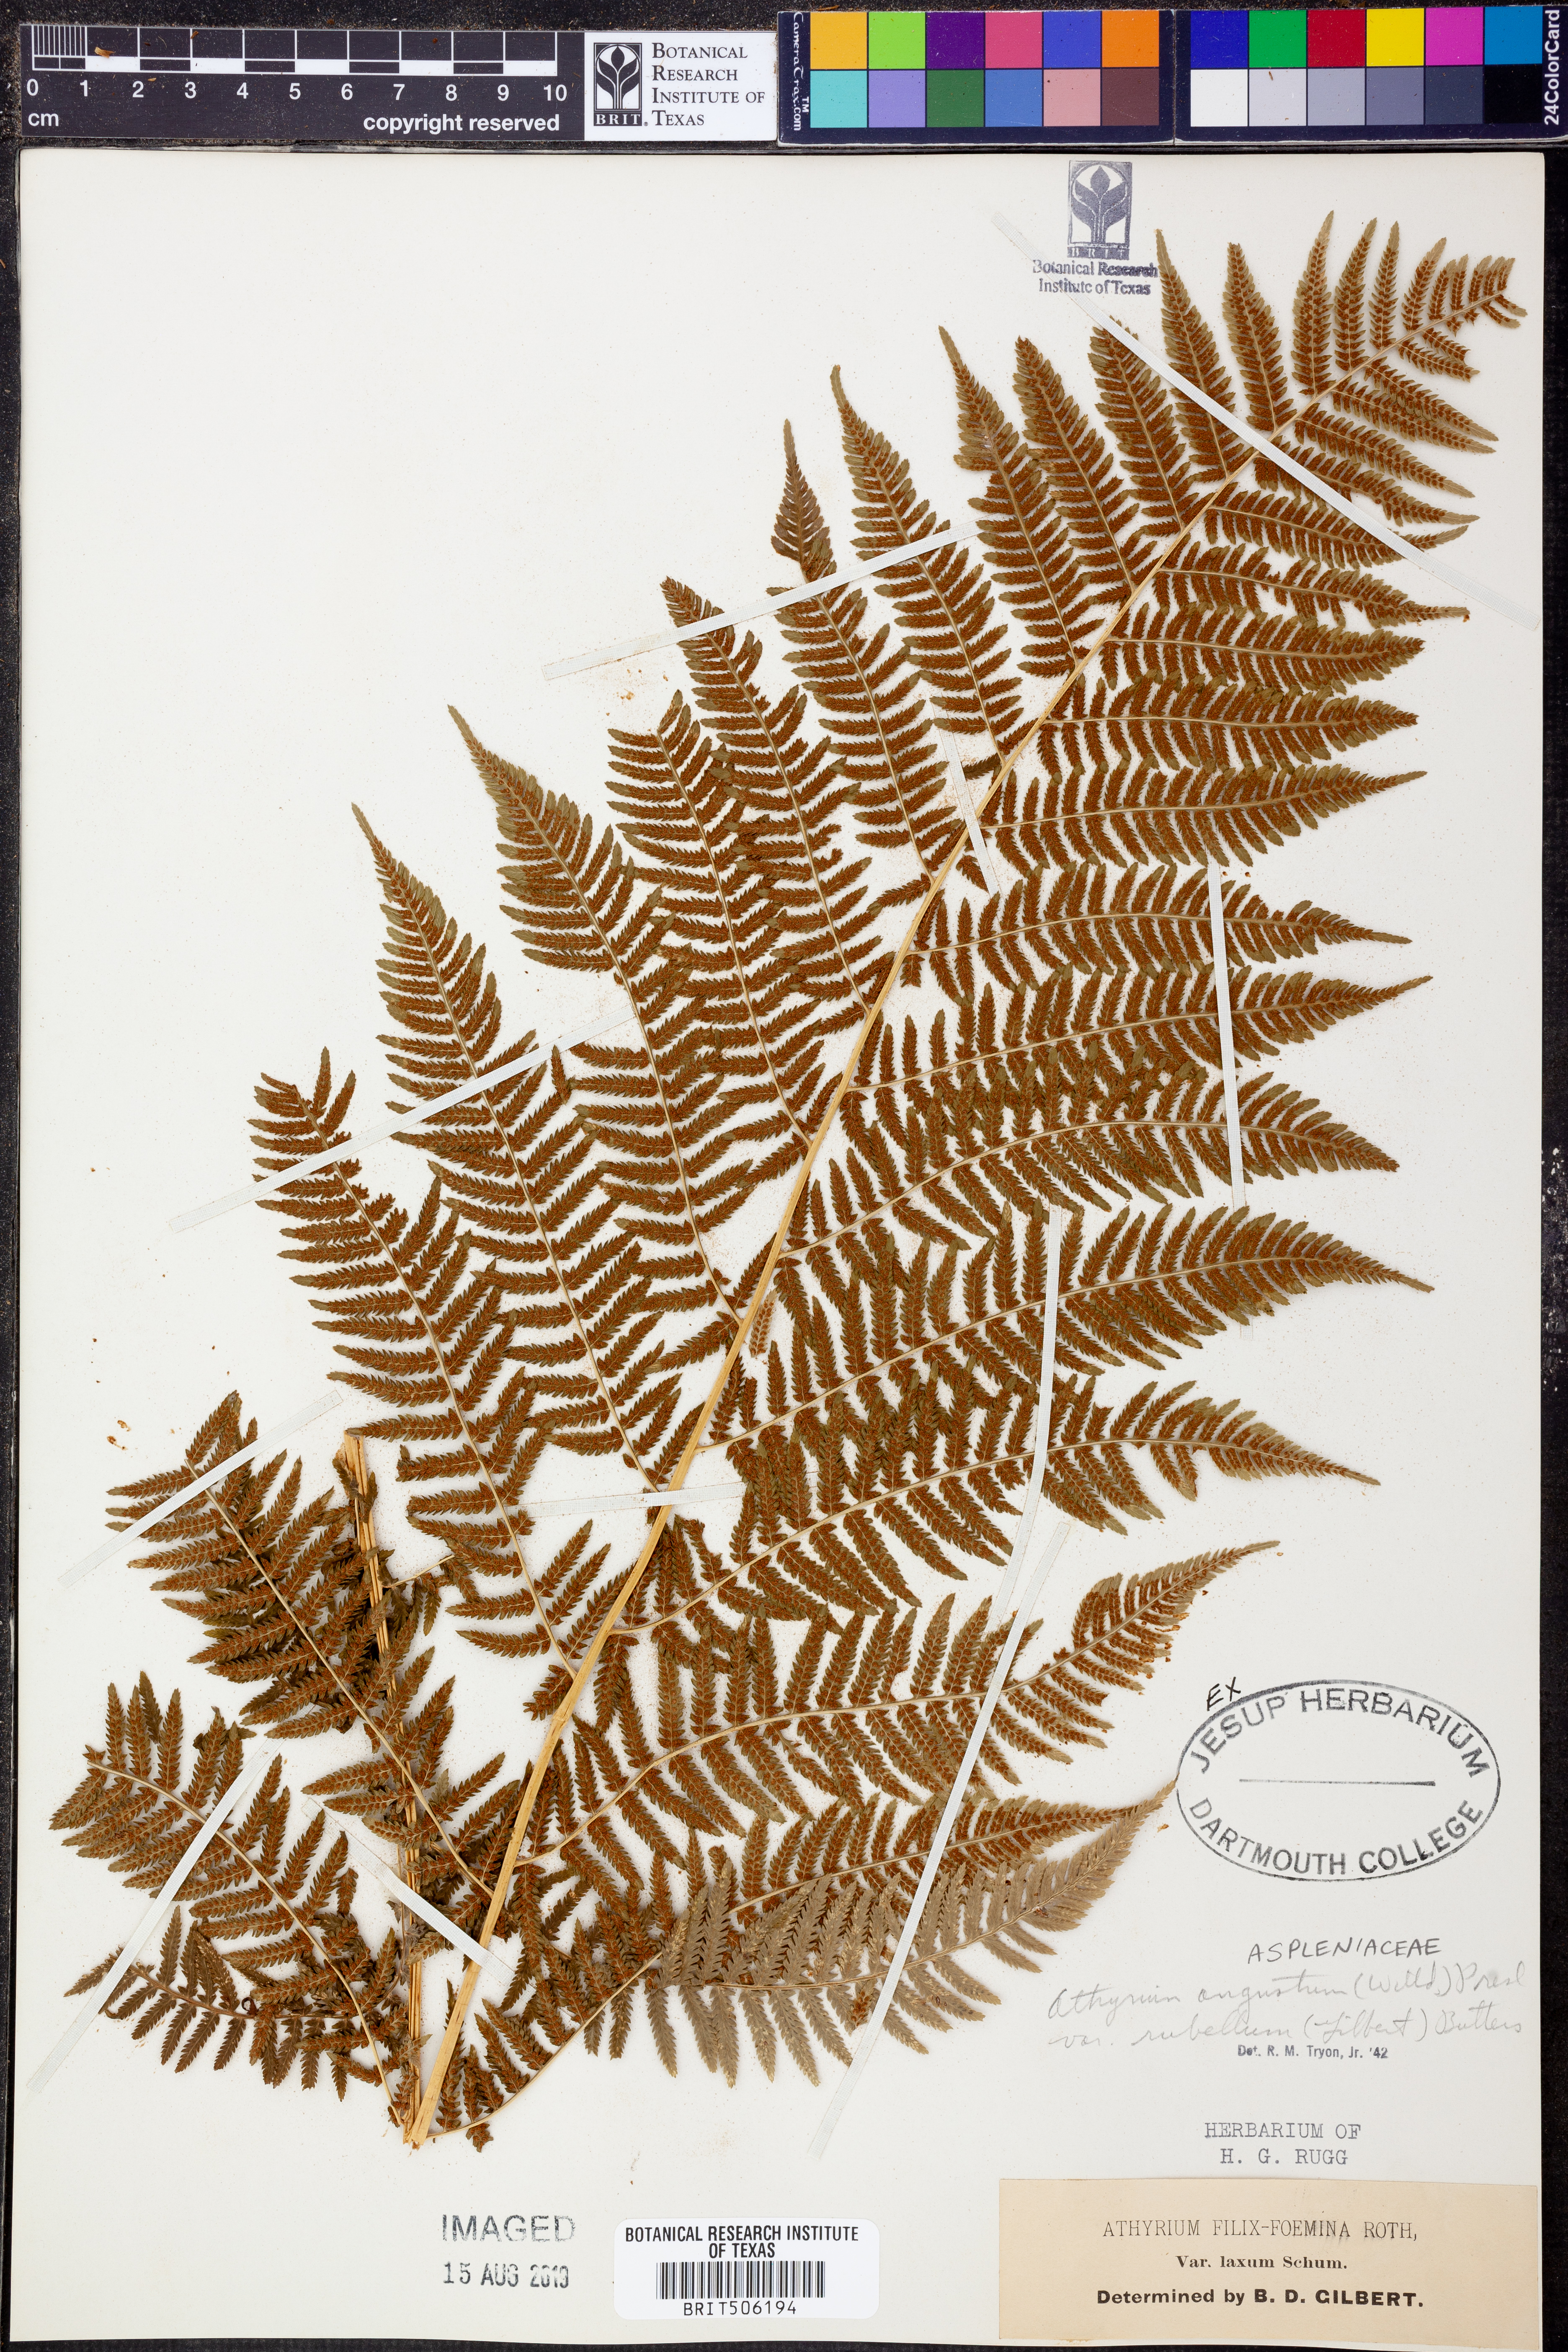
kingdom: Plantae
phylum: Tracheophyta
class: Polypodiopsida
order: Polypodiales
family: Athyriaceae
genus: Athyrium
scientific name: Athyrium angustum
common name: Northern lady fern
